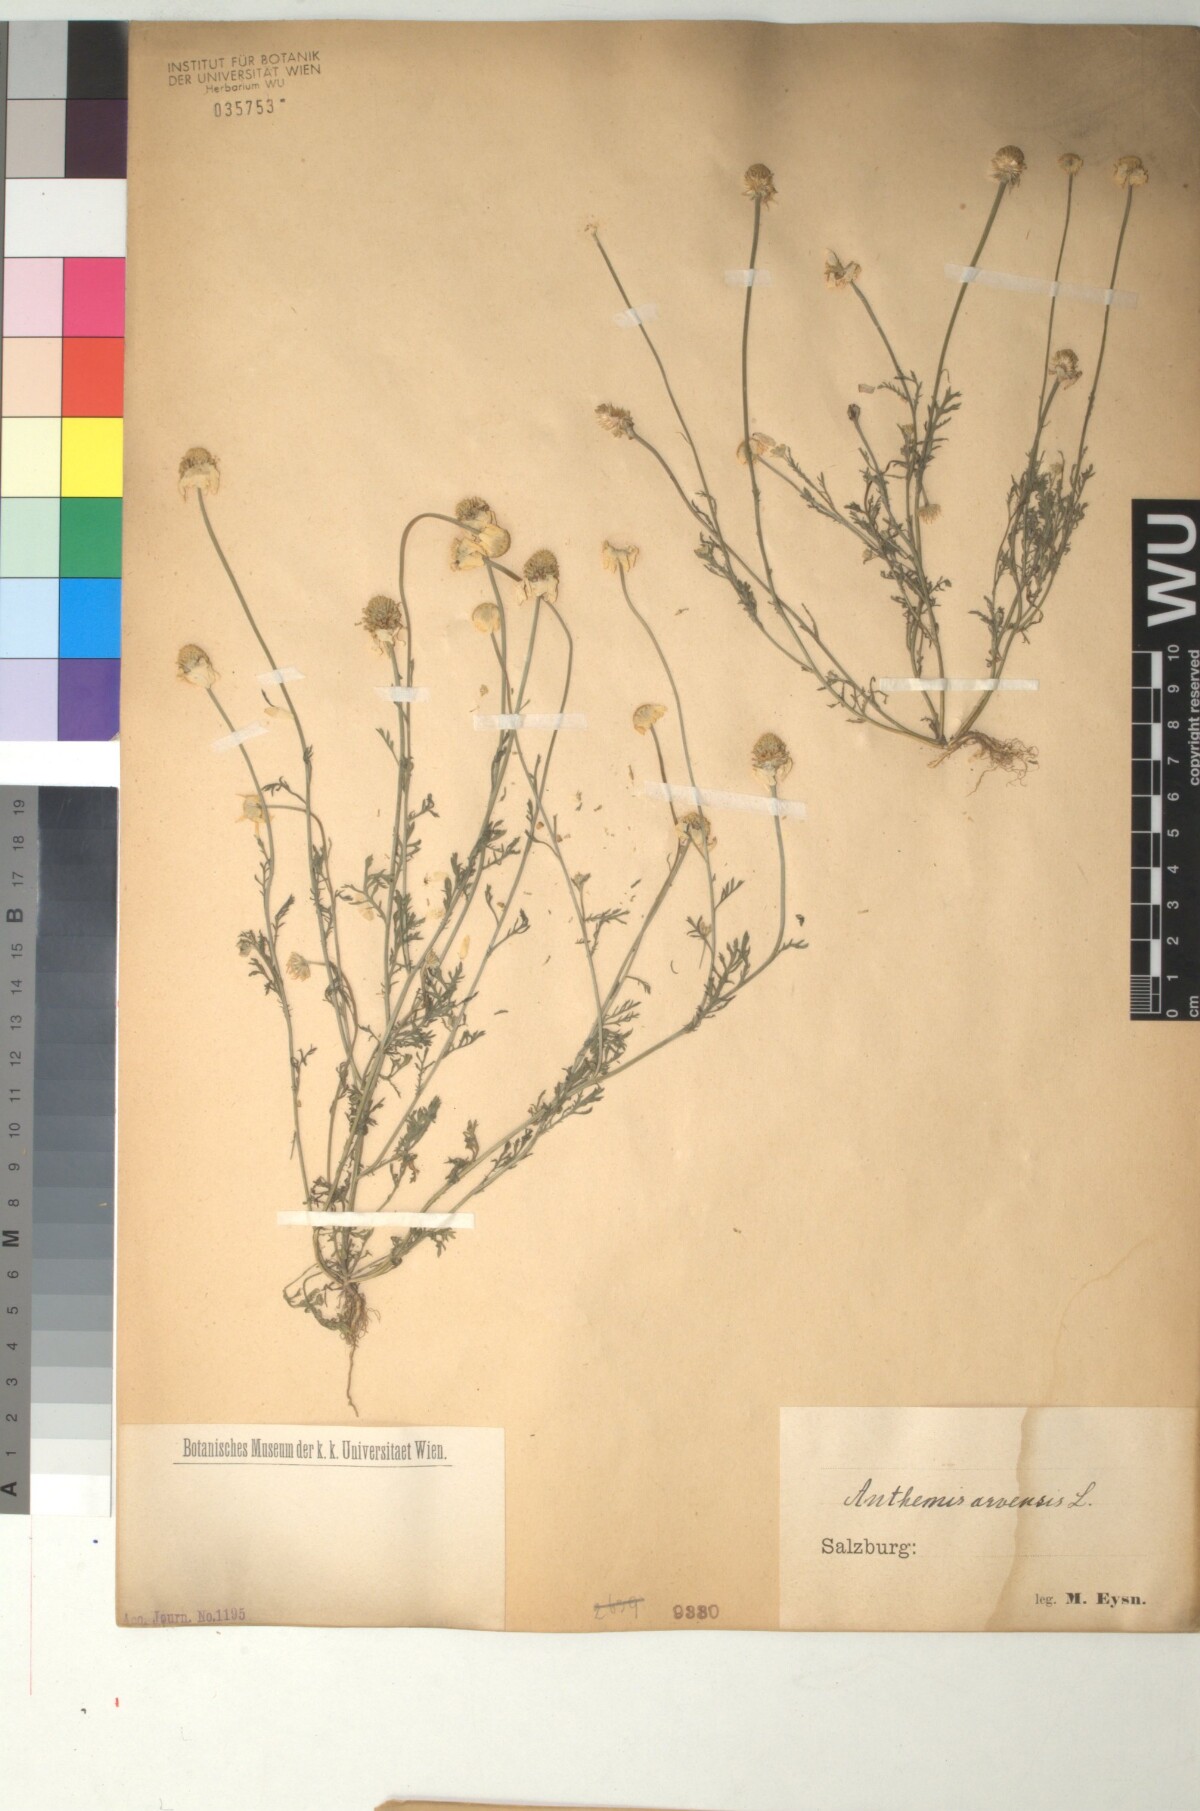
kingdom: Plantae
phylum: Tracheophyta
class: Magnoliopsida
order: Asterales
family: Asteraceae
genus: Anthemis
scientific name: Anthemis arvensis
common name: Corn chamomile
